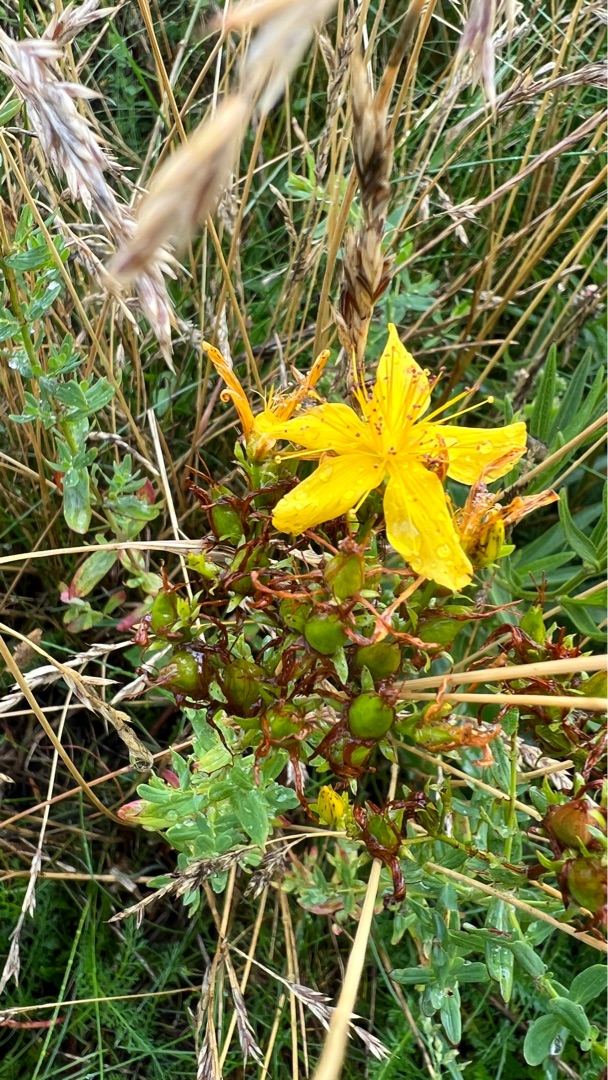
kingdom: Plantae
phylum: Tracheophyta
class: Magnoliopsida
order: Malpighiales
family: Hypericaceae
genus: Hypericum
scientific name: Hypericum perforatum
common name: Prikbladet perikon
